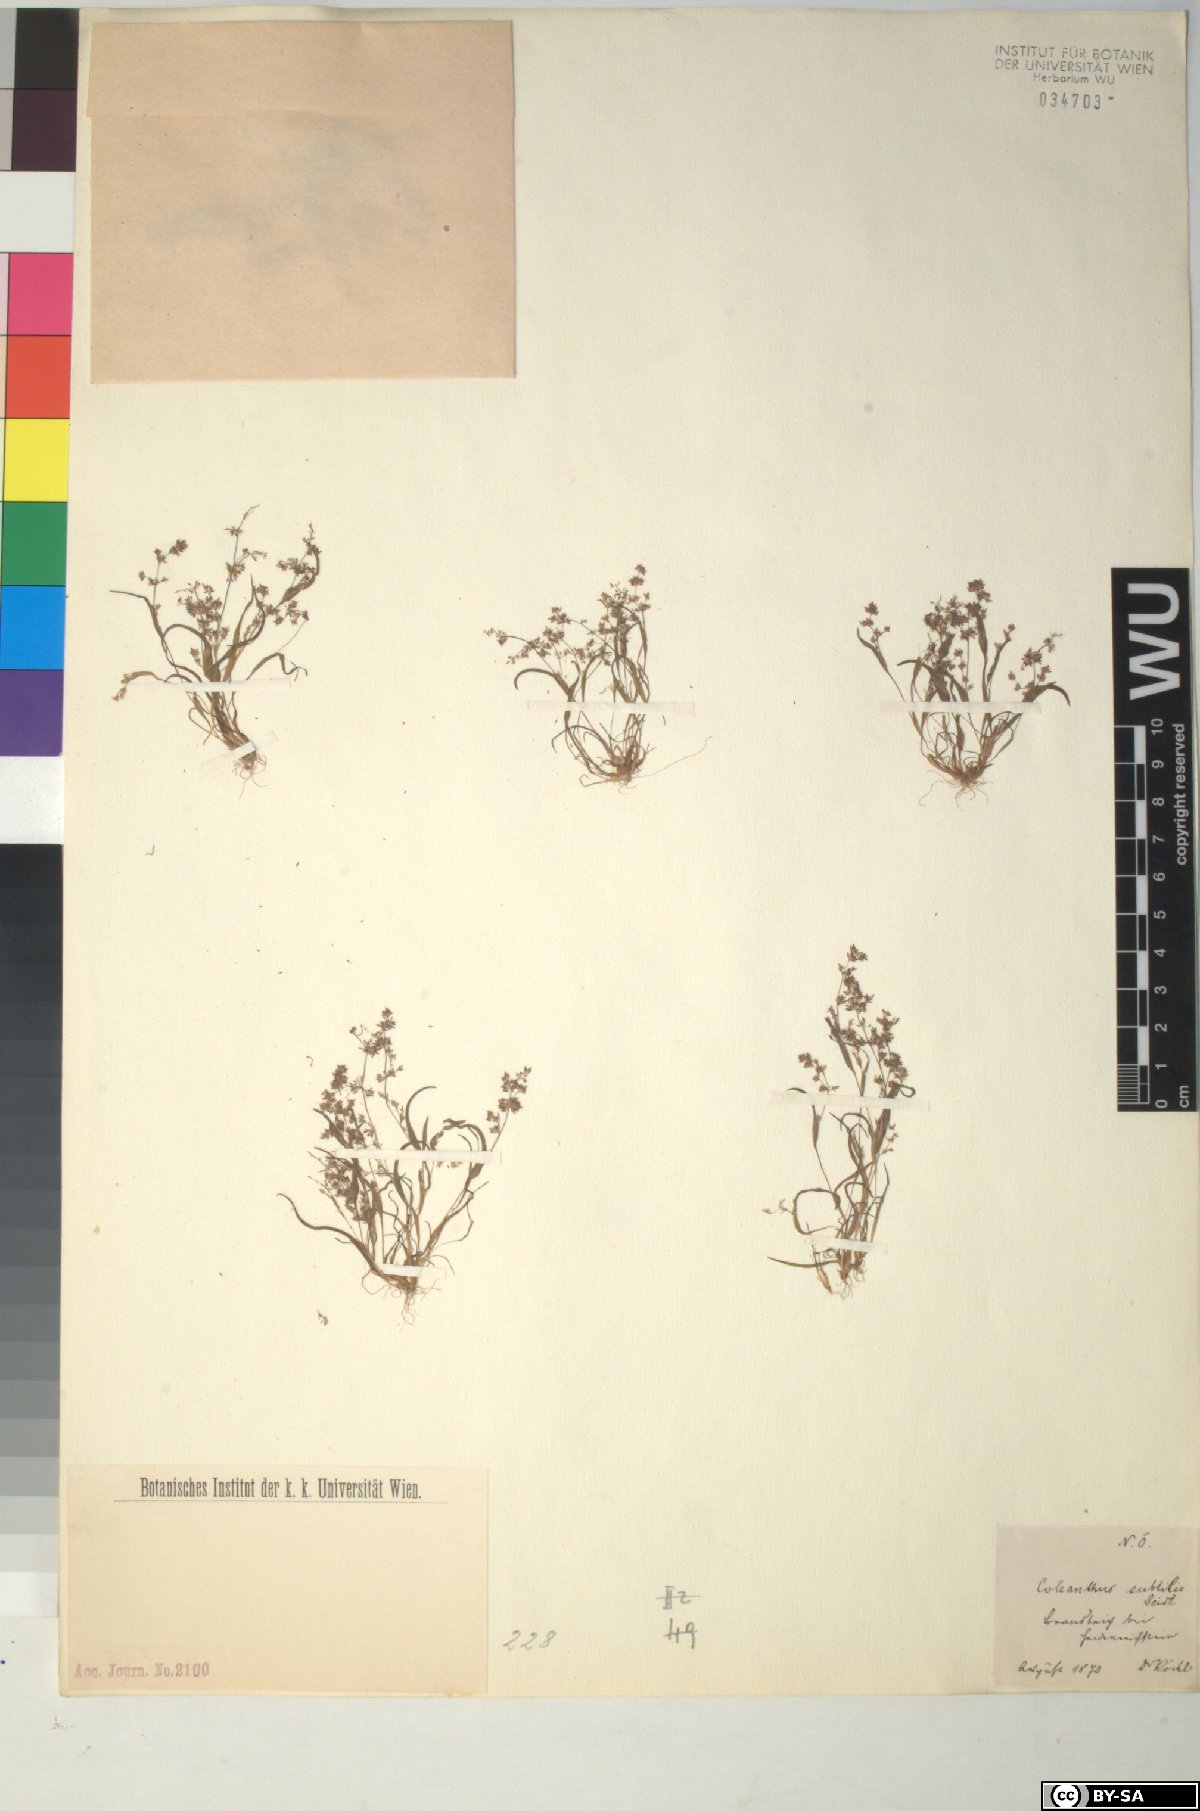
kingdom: Plantae
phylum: Tracheophyta
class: Liliopsida
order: Poales
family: Poaceae
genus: Coleanthus
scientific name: Coleanthus subtilis
